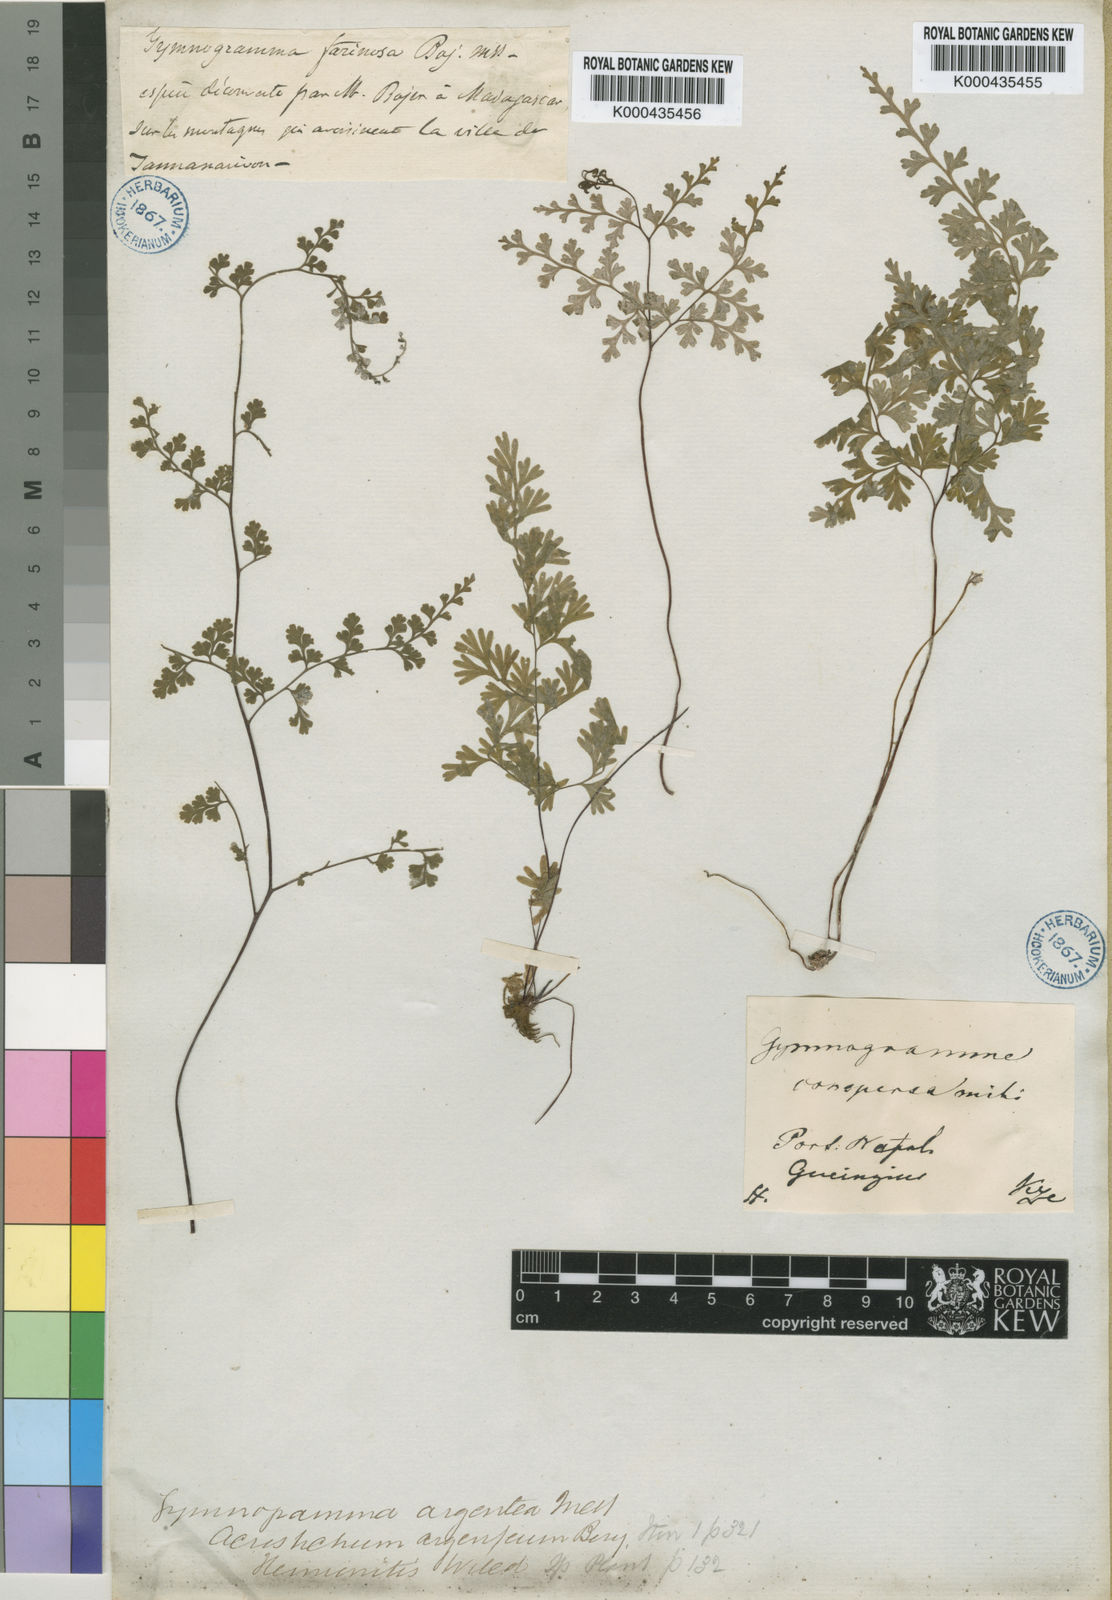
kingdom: Plantae
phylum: Tracheophyta
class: Polypodiopsida
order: Polypodiales
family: Pteridaceae
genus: Cerosora
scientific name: Cerosora argentea
